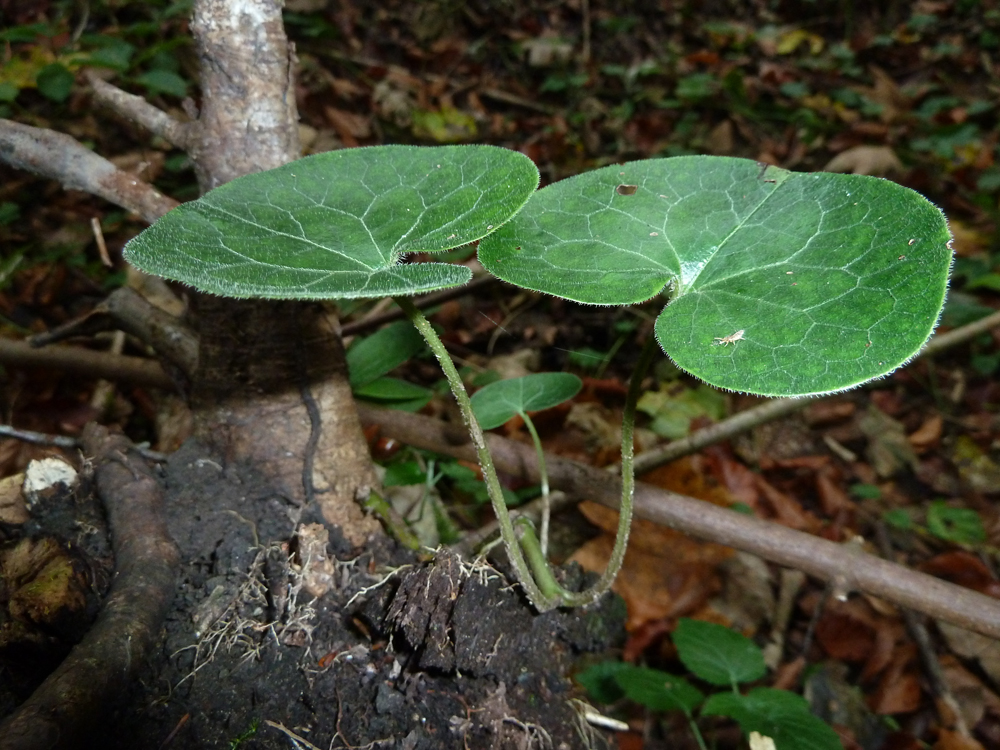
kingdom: Plantae
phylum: Tracheophyta
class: Magnoliopsida
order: Piperales
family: Aristolochiaceae
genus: Asarum
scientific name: Asarum europaeum
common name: Asarabacca
